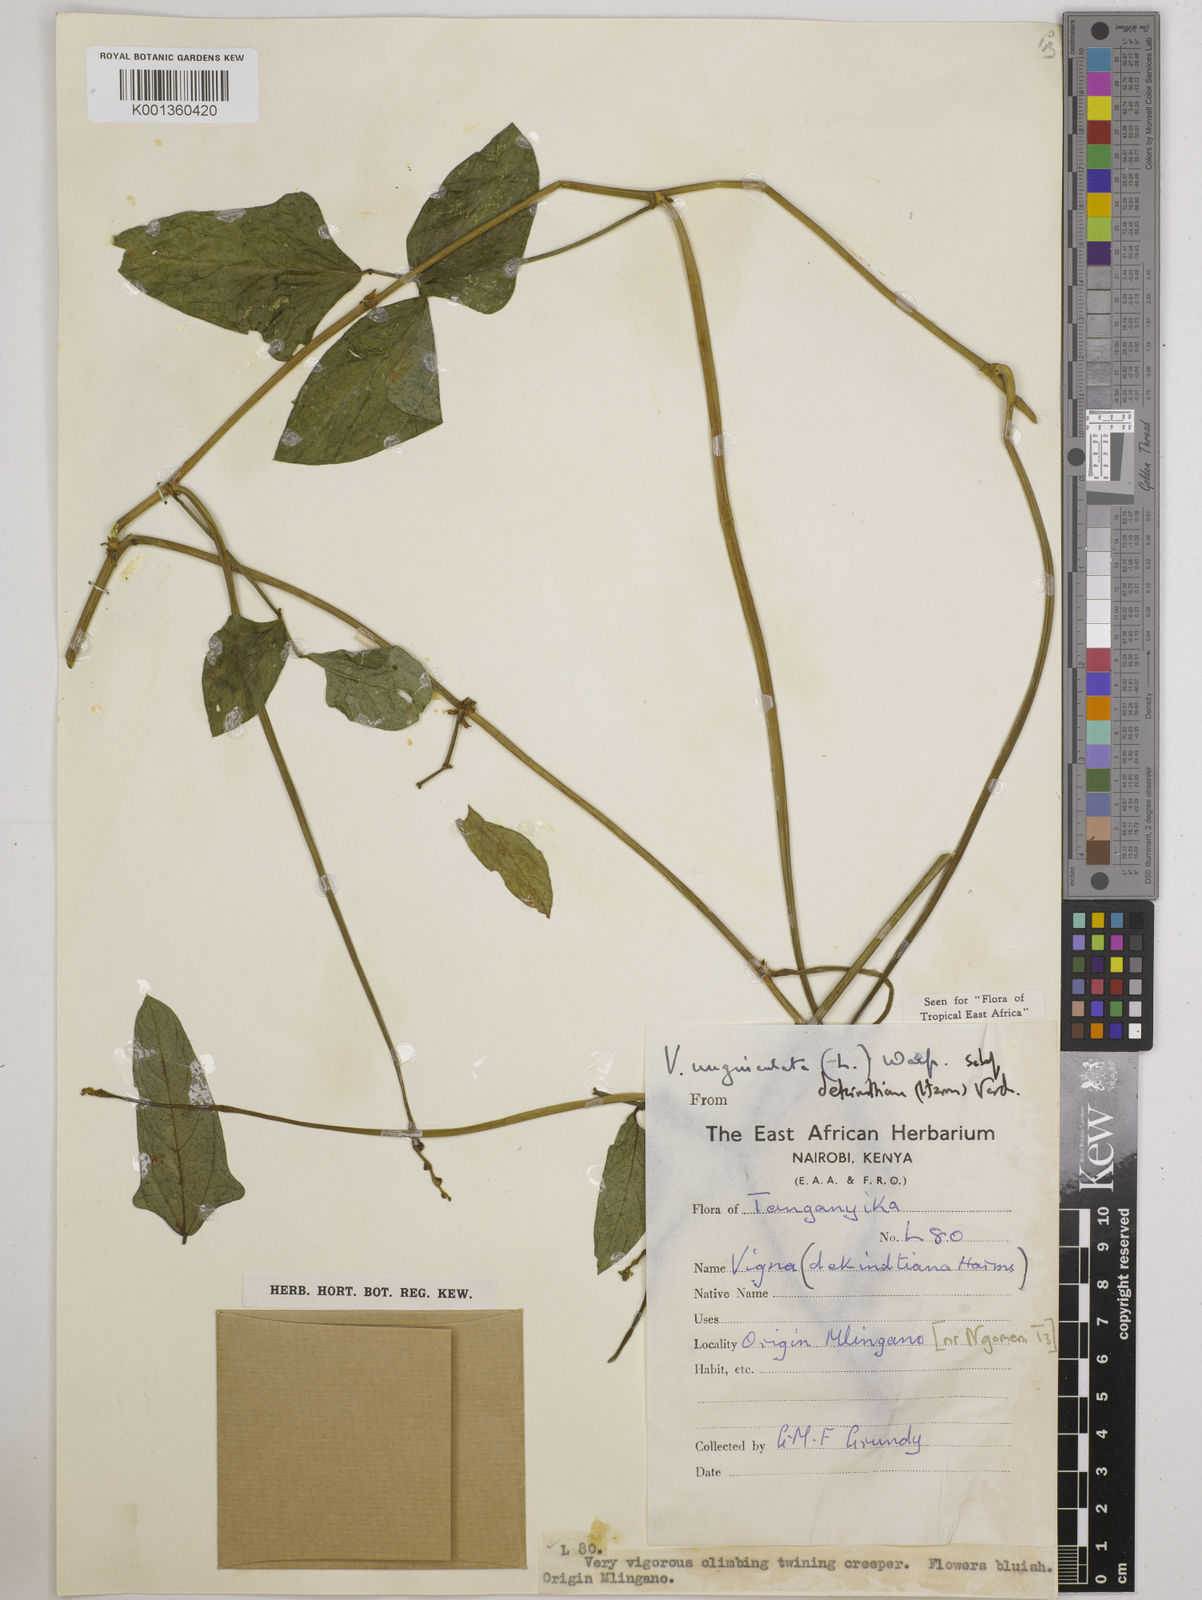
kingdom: Plantae
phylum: Tracheophyta
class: Magnoliopsida
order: Fabales
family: Fabaceae
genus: Vigna
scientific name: Vigna
